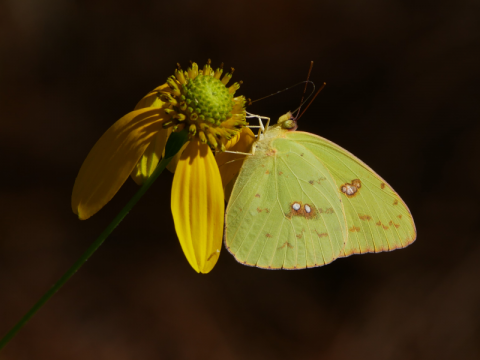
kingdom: Animalia
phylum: Arthropoda
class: Insecta
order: Lepidoptera
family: Pieridae
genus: Phoebis
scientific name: Phoebis sennae
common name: Cloudless Sulphur
